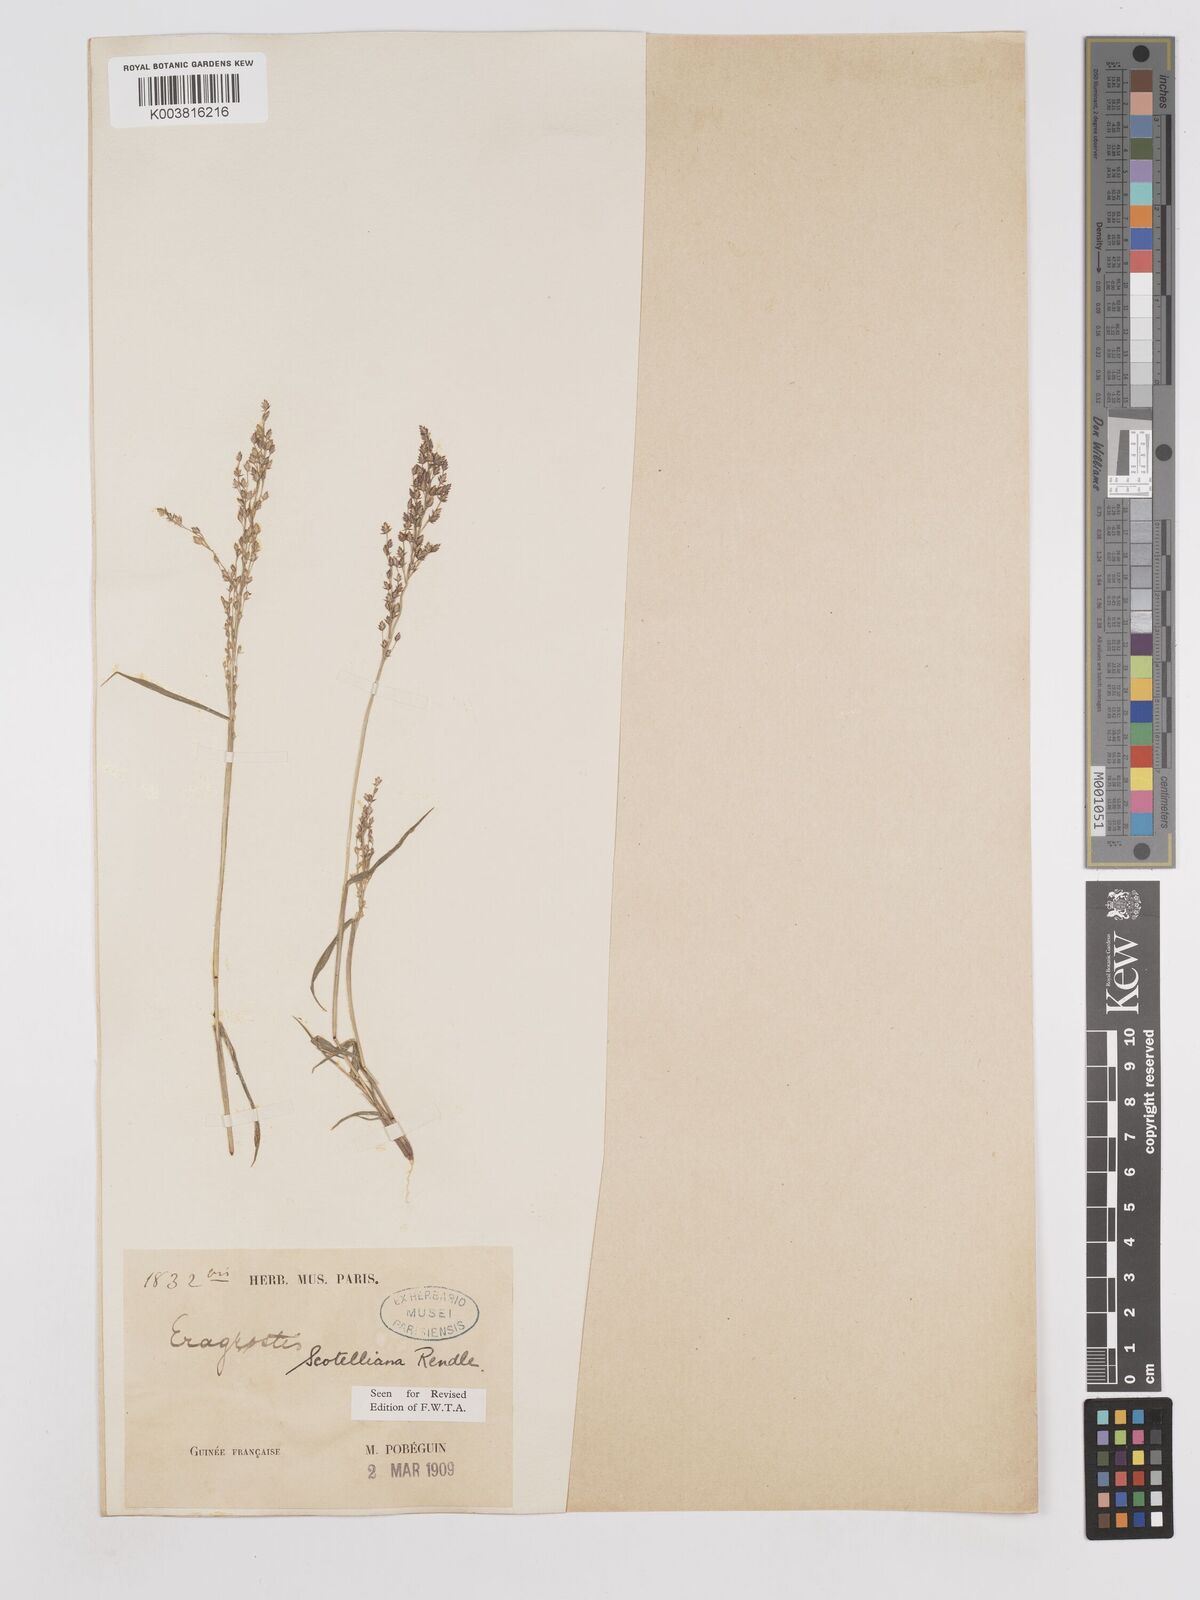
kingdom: Plantae
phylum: Tracheophyta
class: Liliopsida
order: Poales
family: Poaceae
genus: Eragrostis
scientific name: Eragrostis scotelliana
